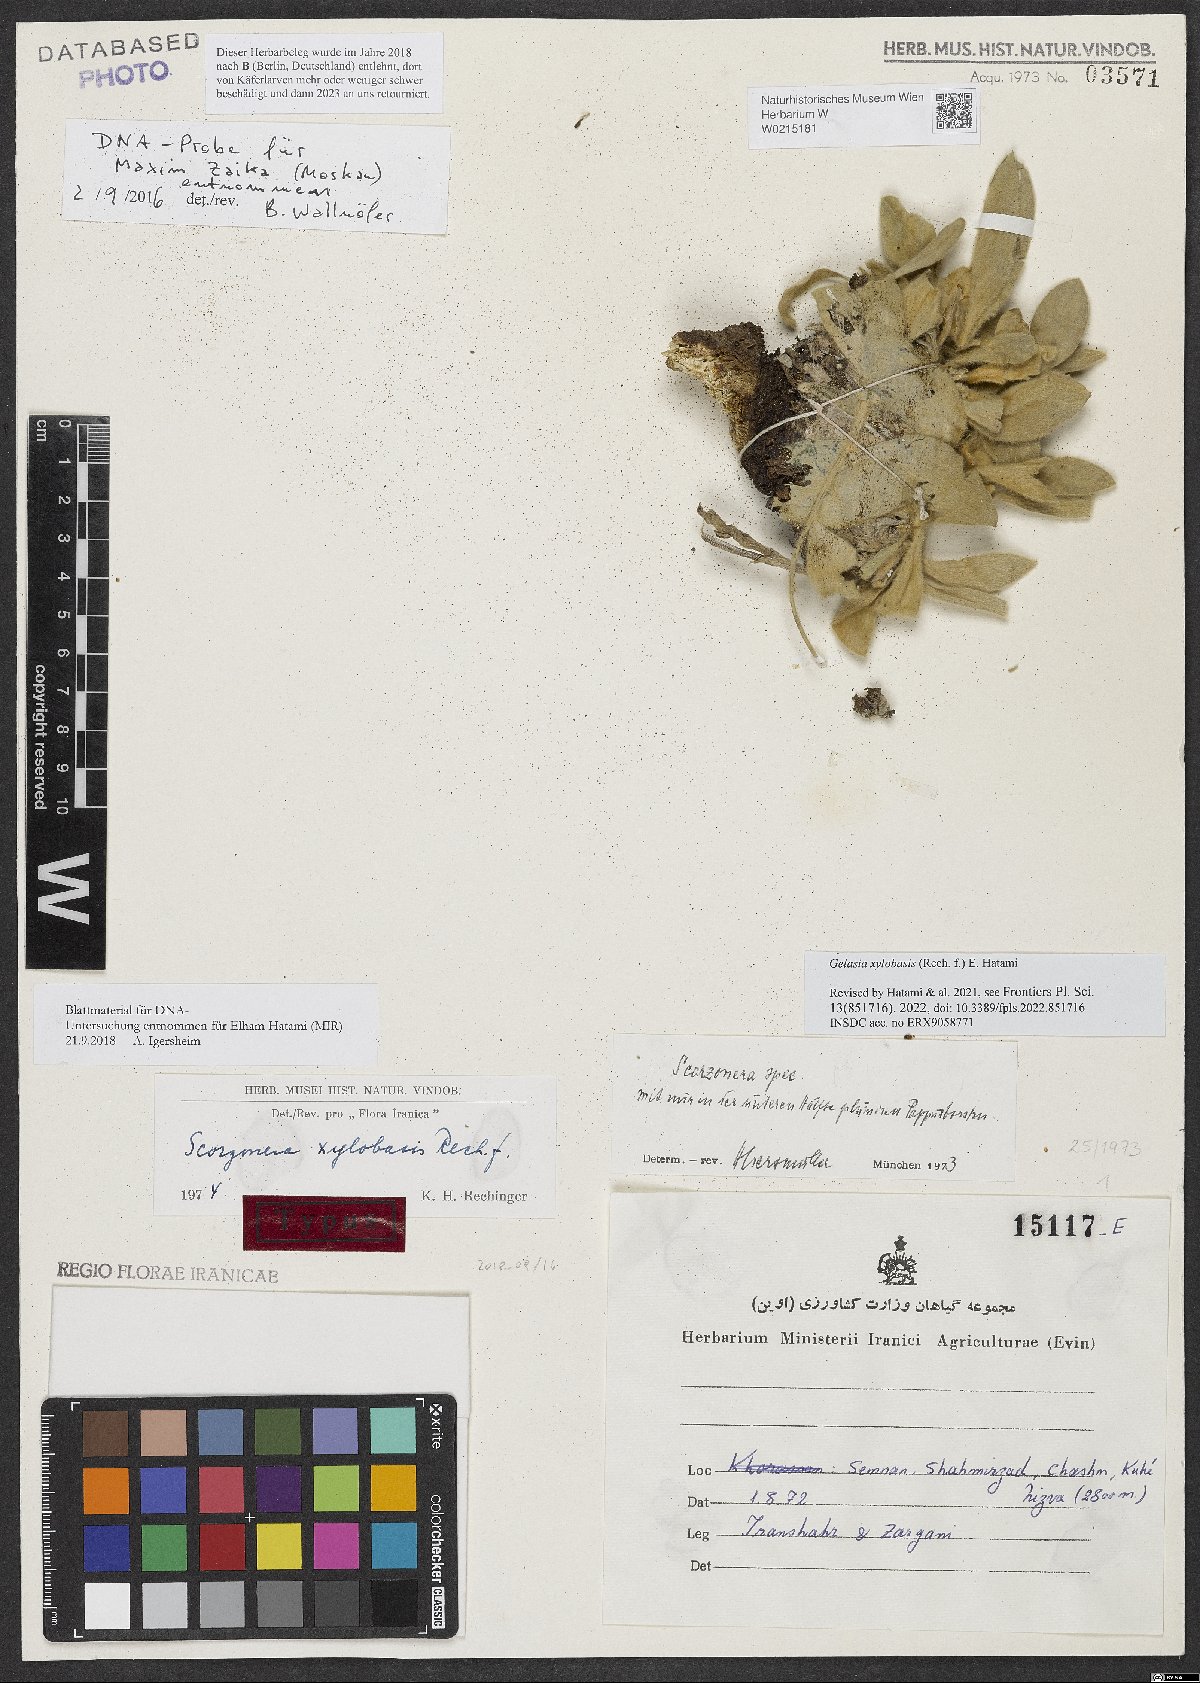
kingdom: Plantae
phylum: Tracheophyta
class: Magnoliopsida
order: Asterales
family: Asteraceae
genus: Scorzonera
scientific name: Scorzonera xylobasis
